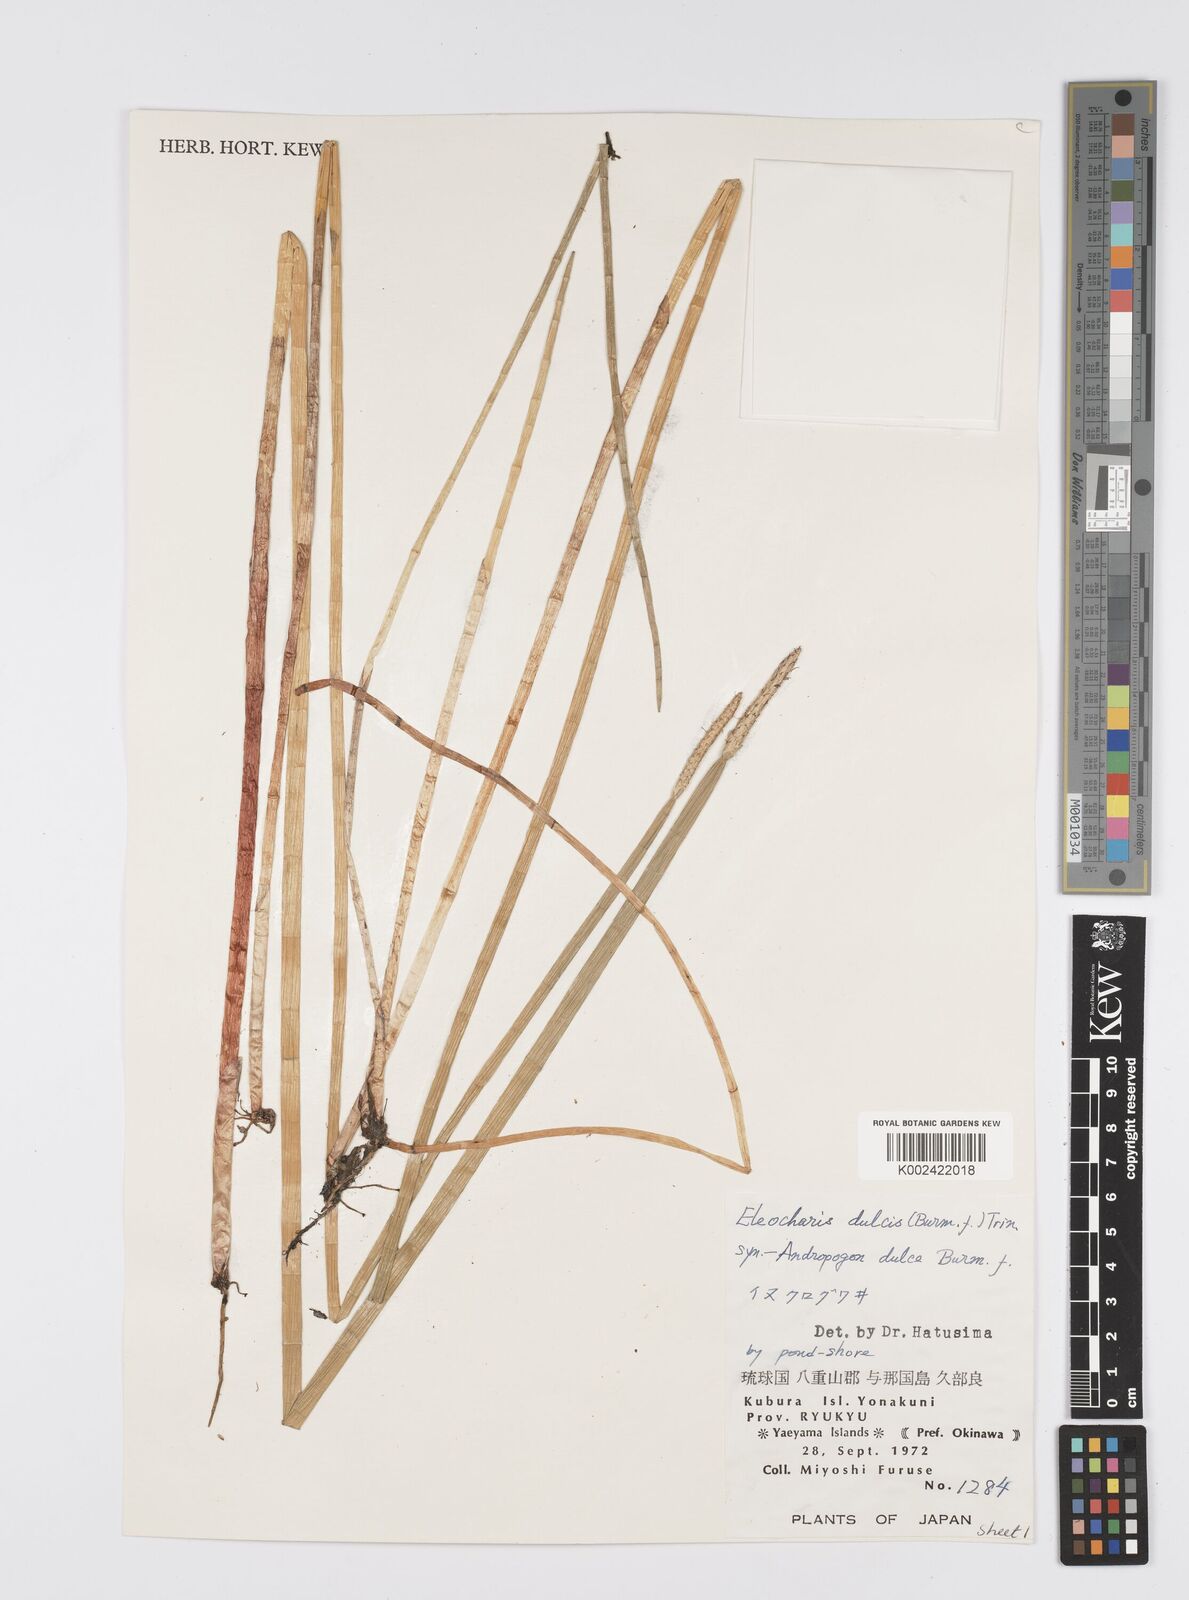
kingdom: Plantae
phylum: Tracheophyta
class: Liliopsida
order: Poales
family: Cyperaceae
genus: Eleocharis
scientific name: Eleocharis dulcis
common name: Chinese water chestnut
